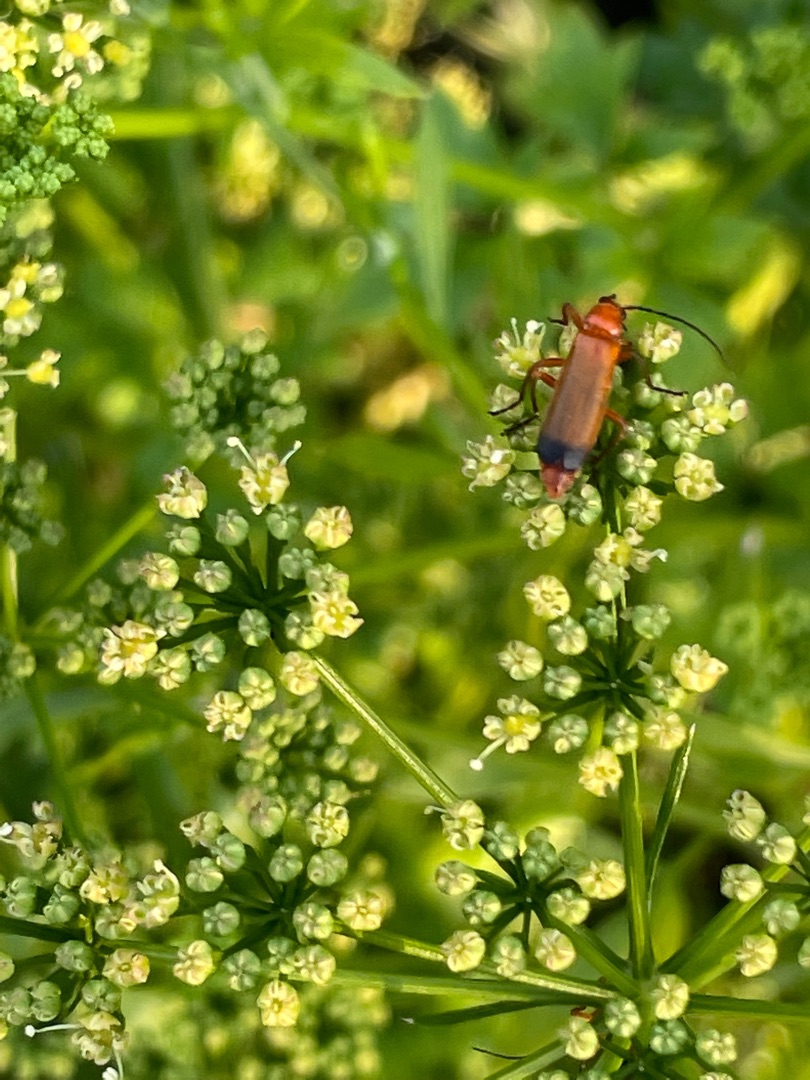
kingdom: Animalia
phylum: Arthropoda
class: Insecta
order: Coleoptera
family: Cantharidae
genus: Rhagonycha
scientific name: Rhagonycha fulva
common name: Præstebille
